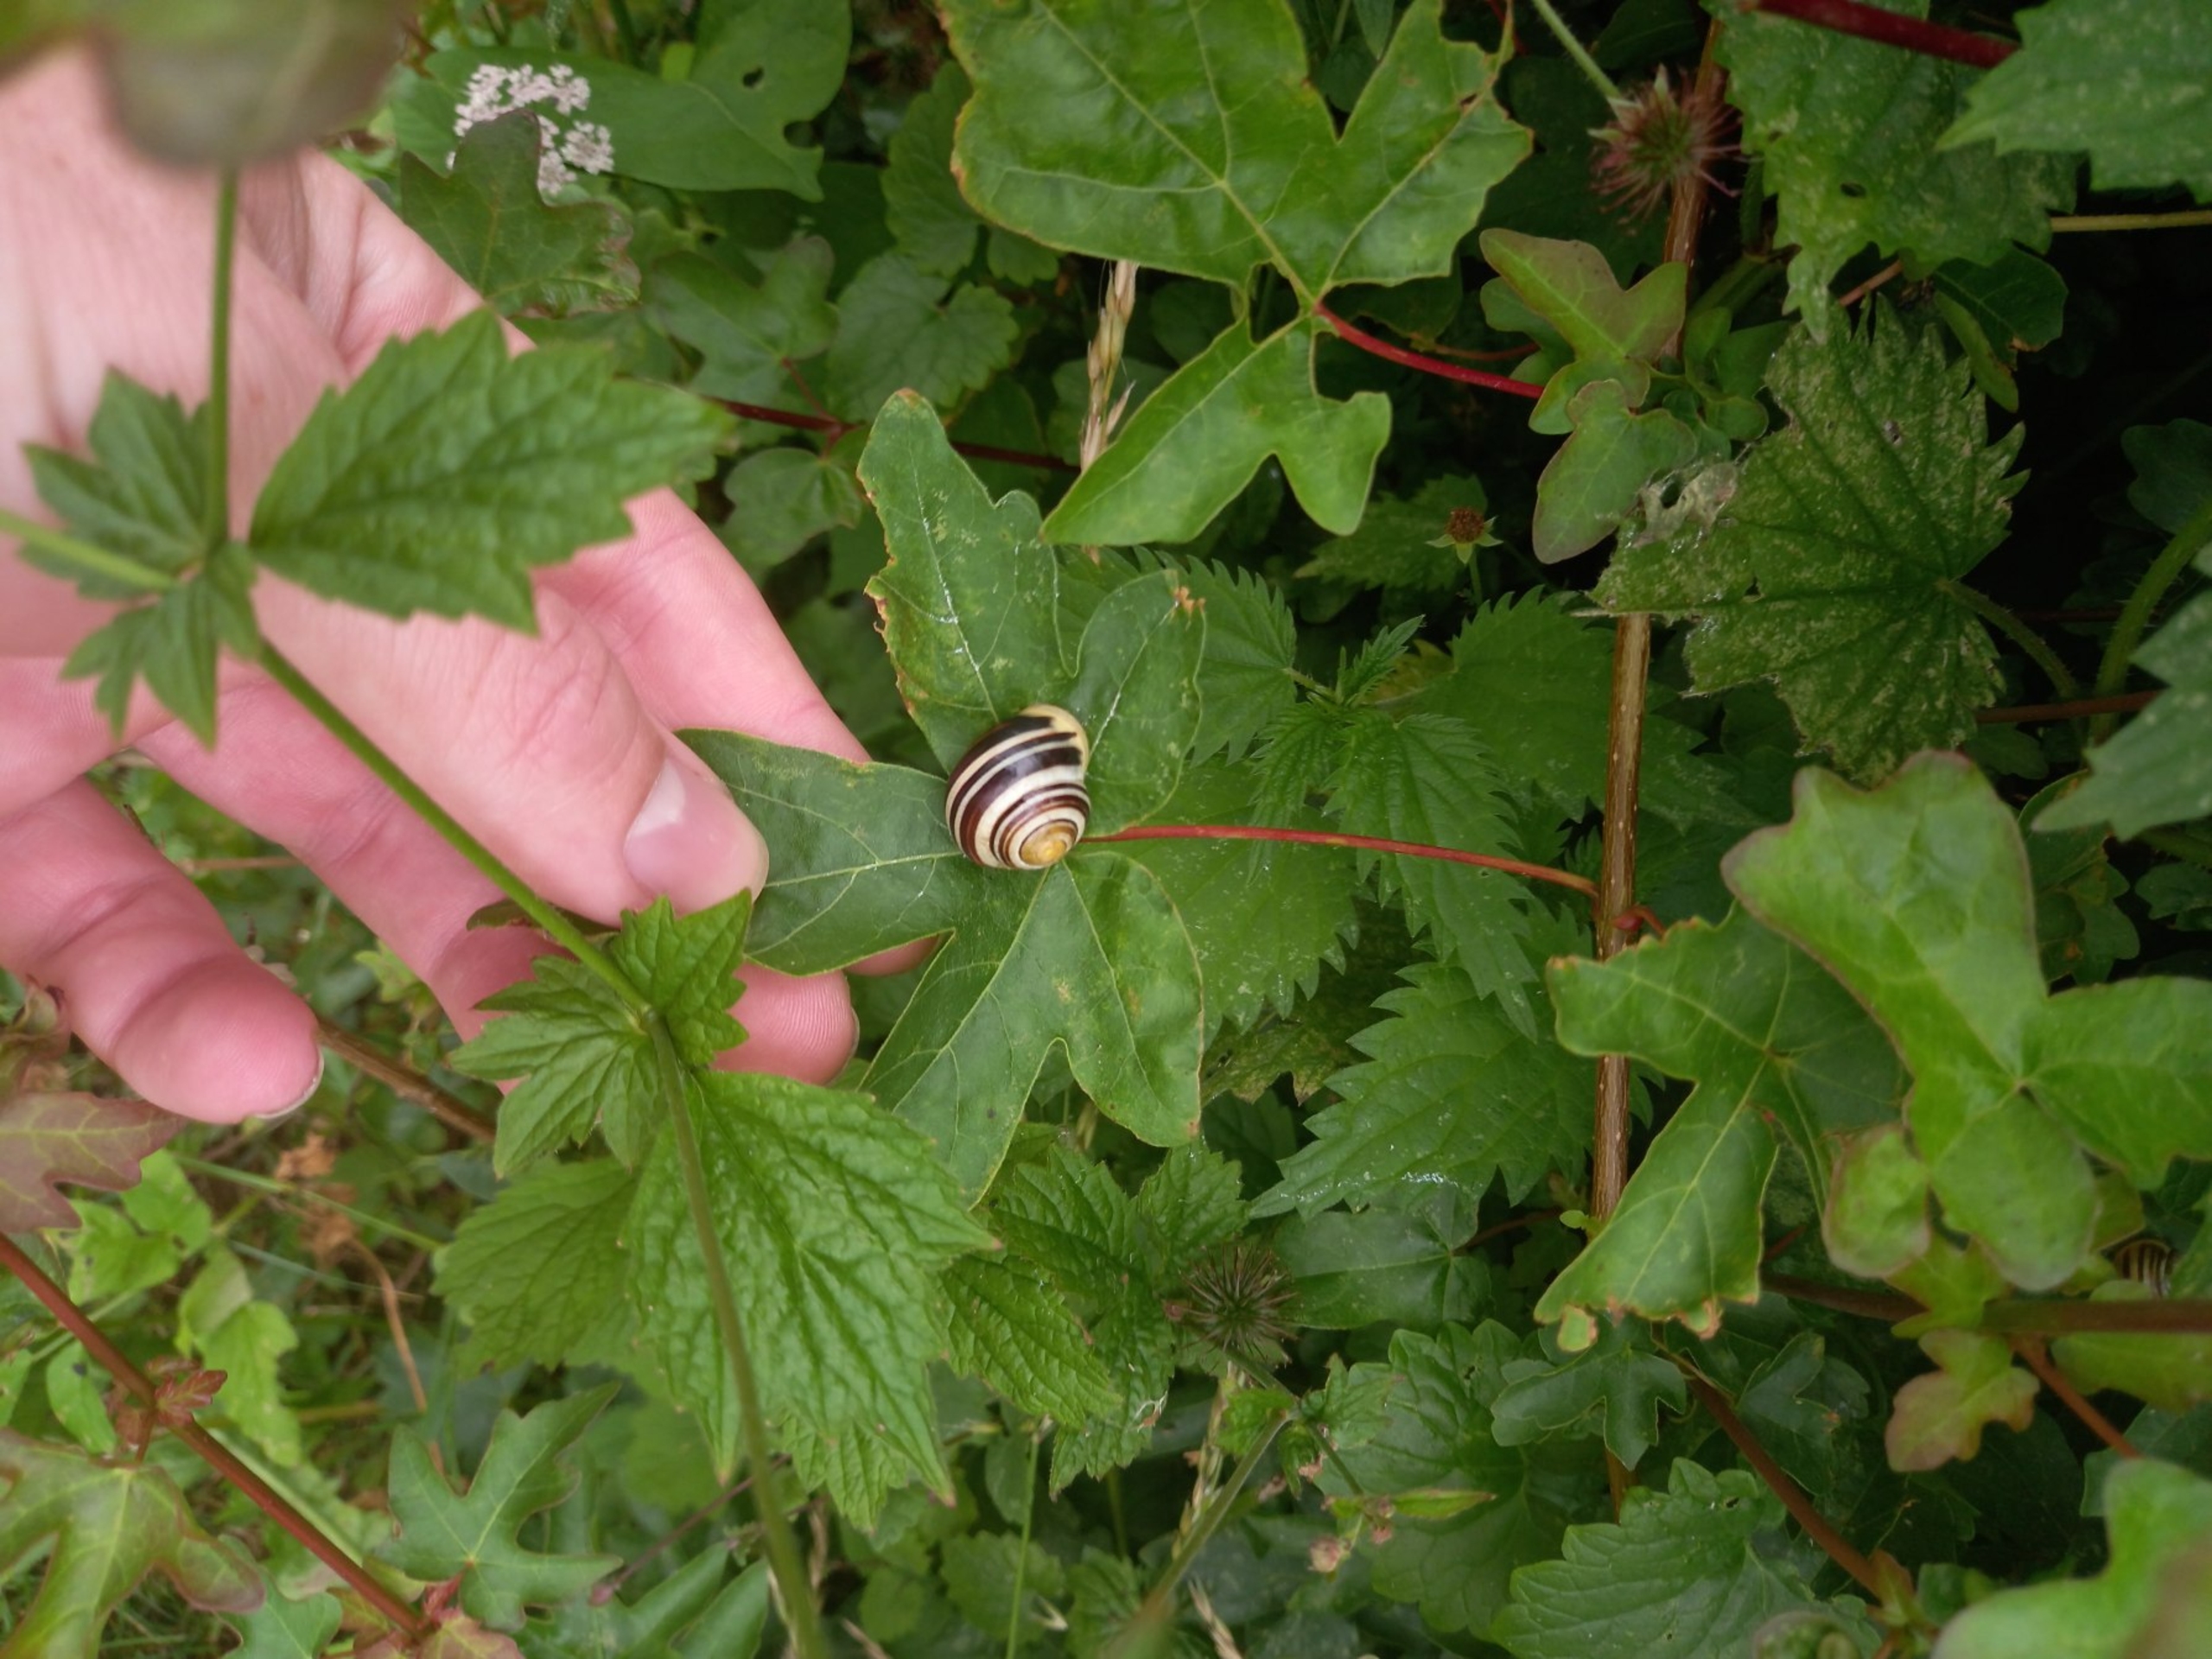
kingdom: Animalia
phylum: Mollusca
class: Gastropoda
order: Stylommatophora
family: Helicidae
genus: Cepaea
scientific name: Cepaea hortensis
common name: Havesnegl
